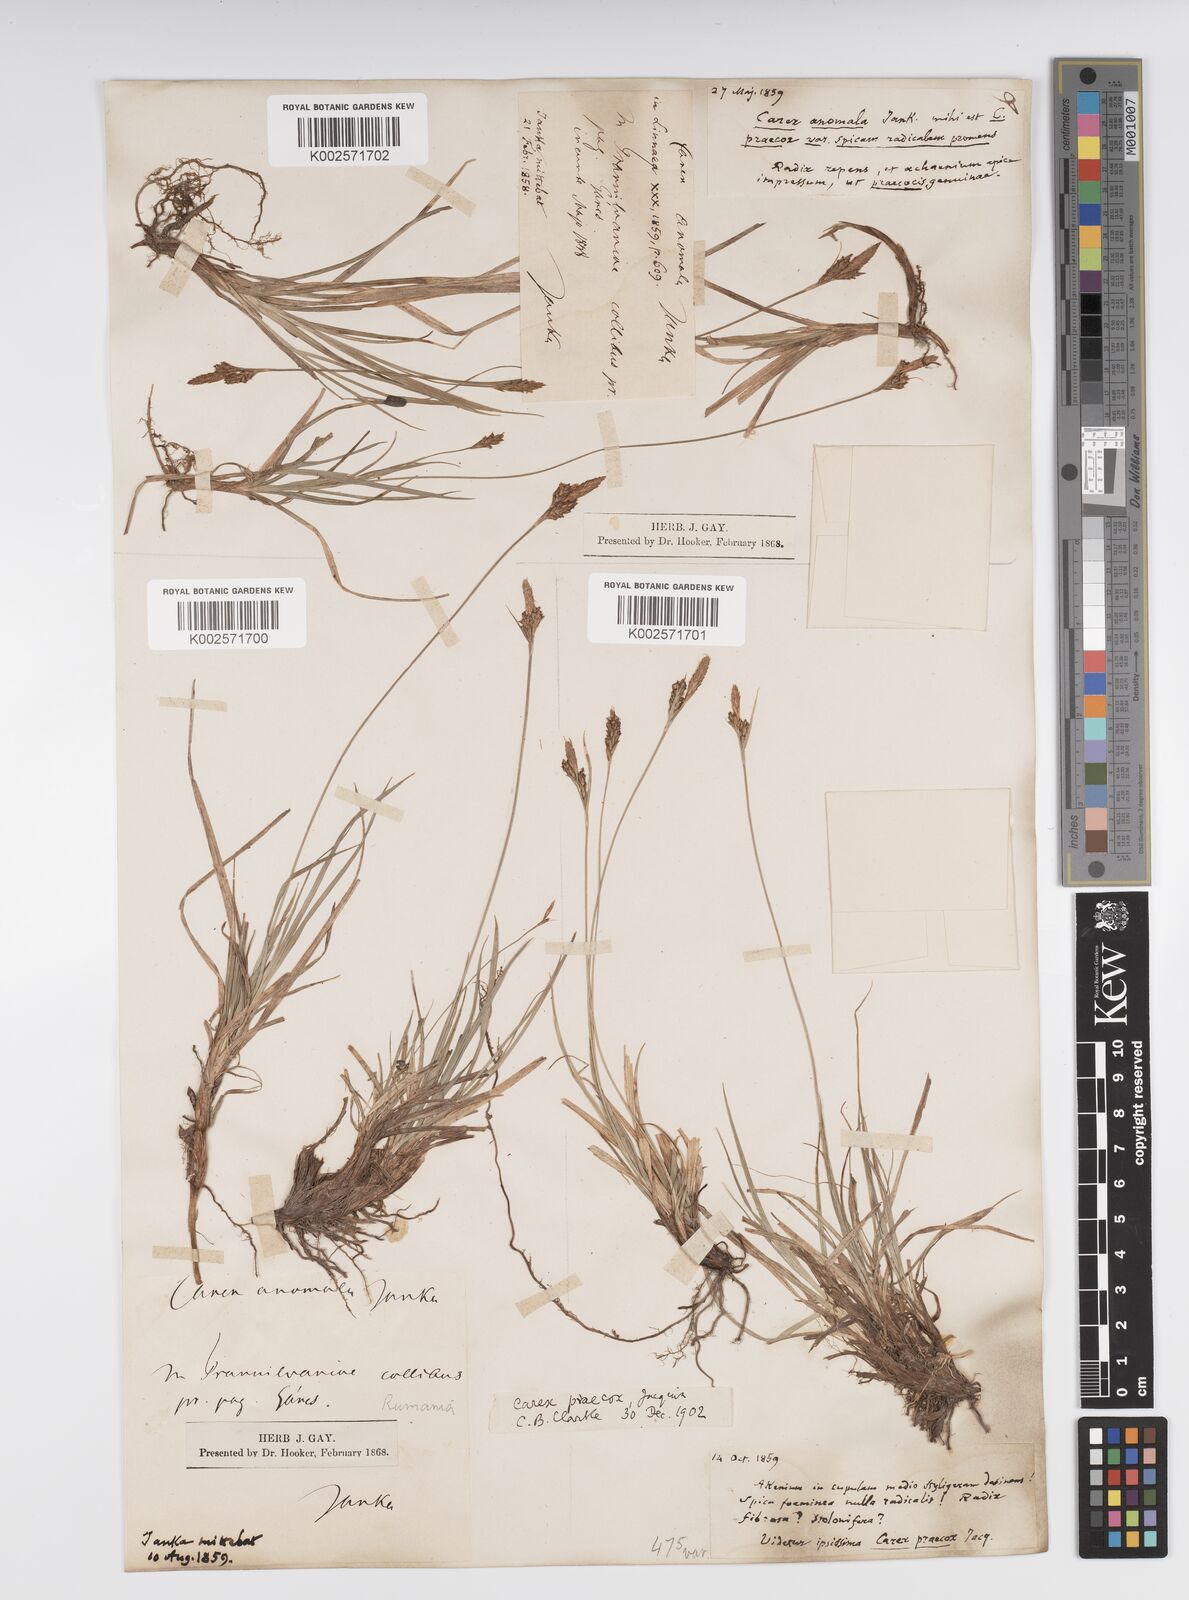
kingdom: Plantae
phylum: Tracheophyta
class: Liliopsida
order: Poales
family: Cyperaceae
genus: Carex
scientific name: Carex caryophyllea
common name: Spring sedge
